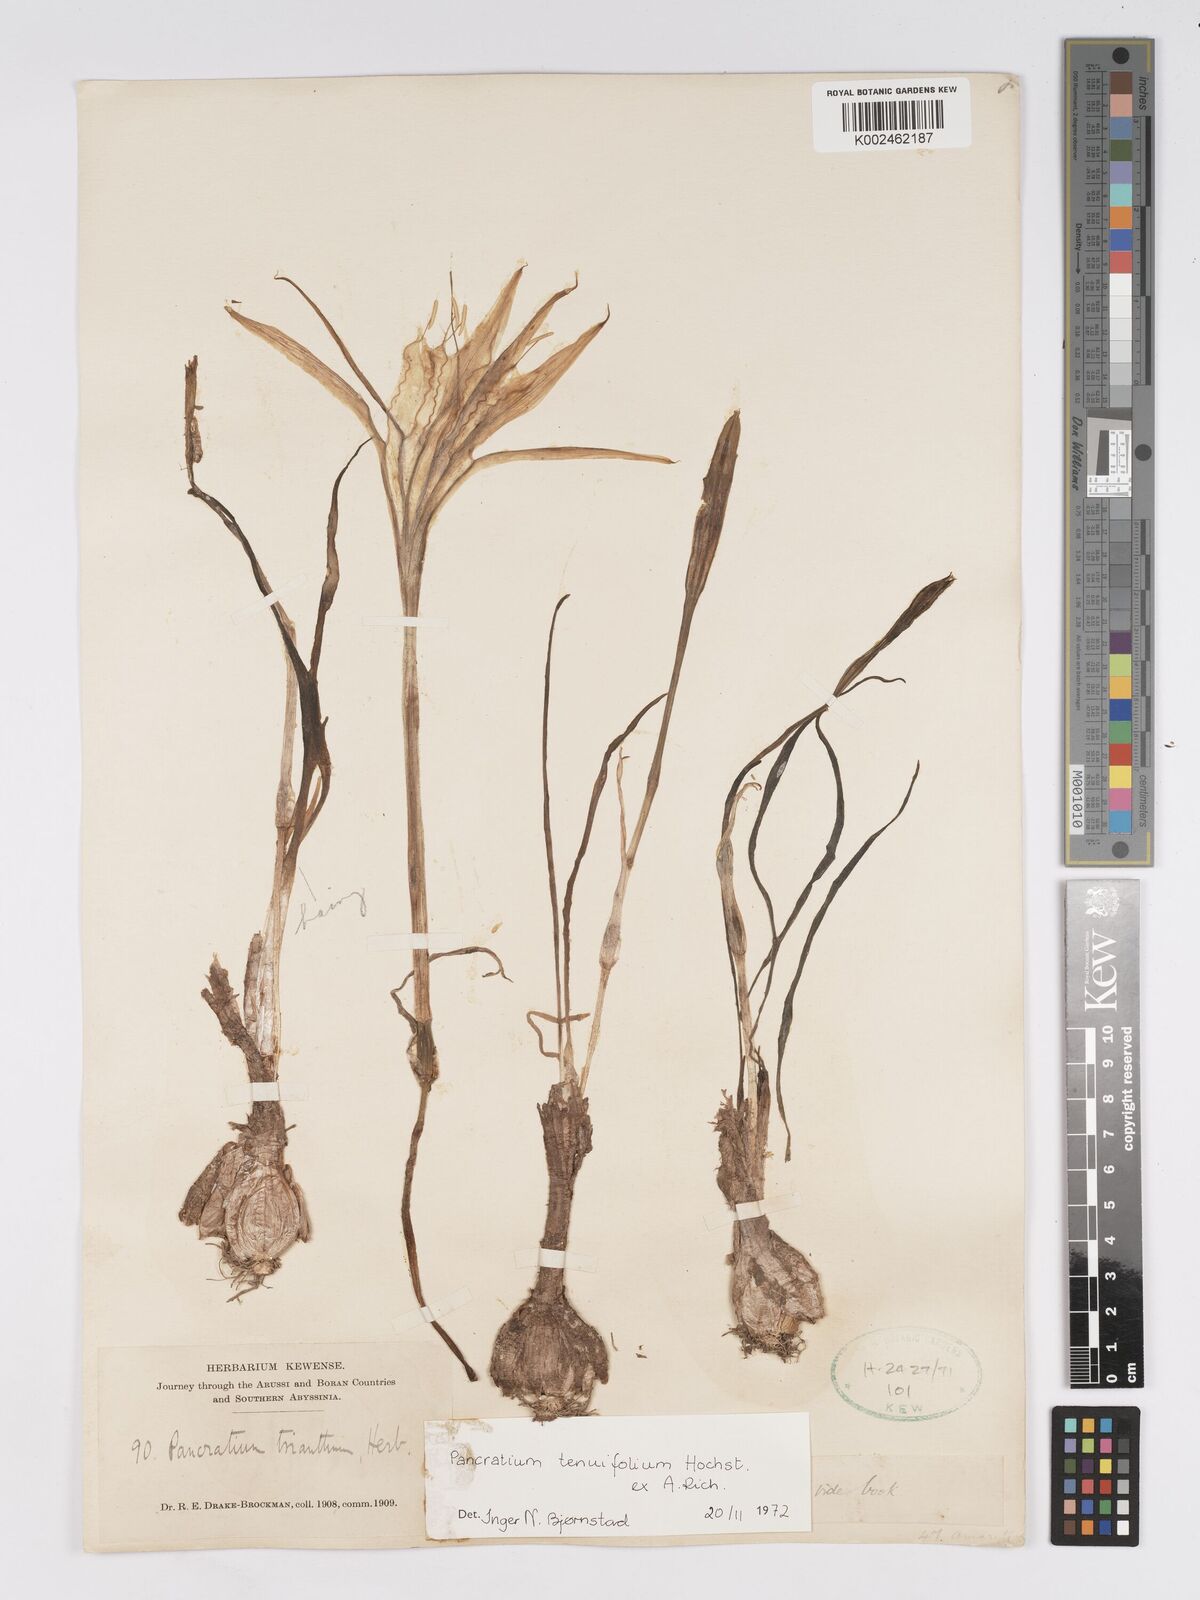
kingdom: Plantae
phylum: Tracheophyta
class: Liliopsida
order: Asparagales
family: Amaryllidaceae
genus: Pancratium
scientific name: Pancratium tenuifolium
